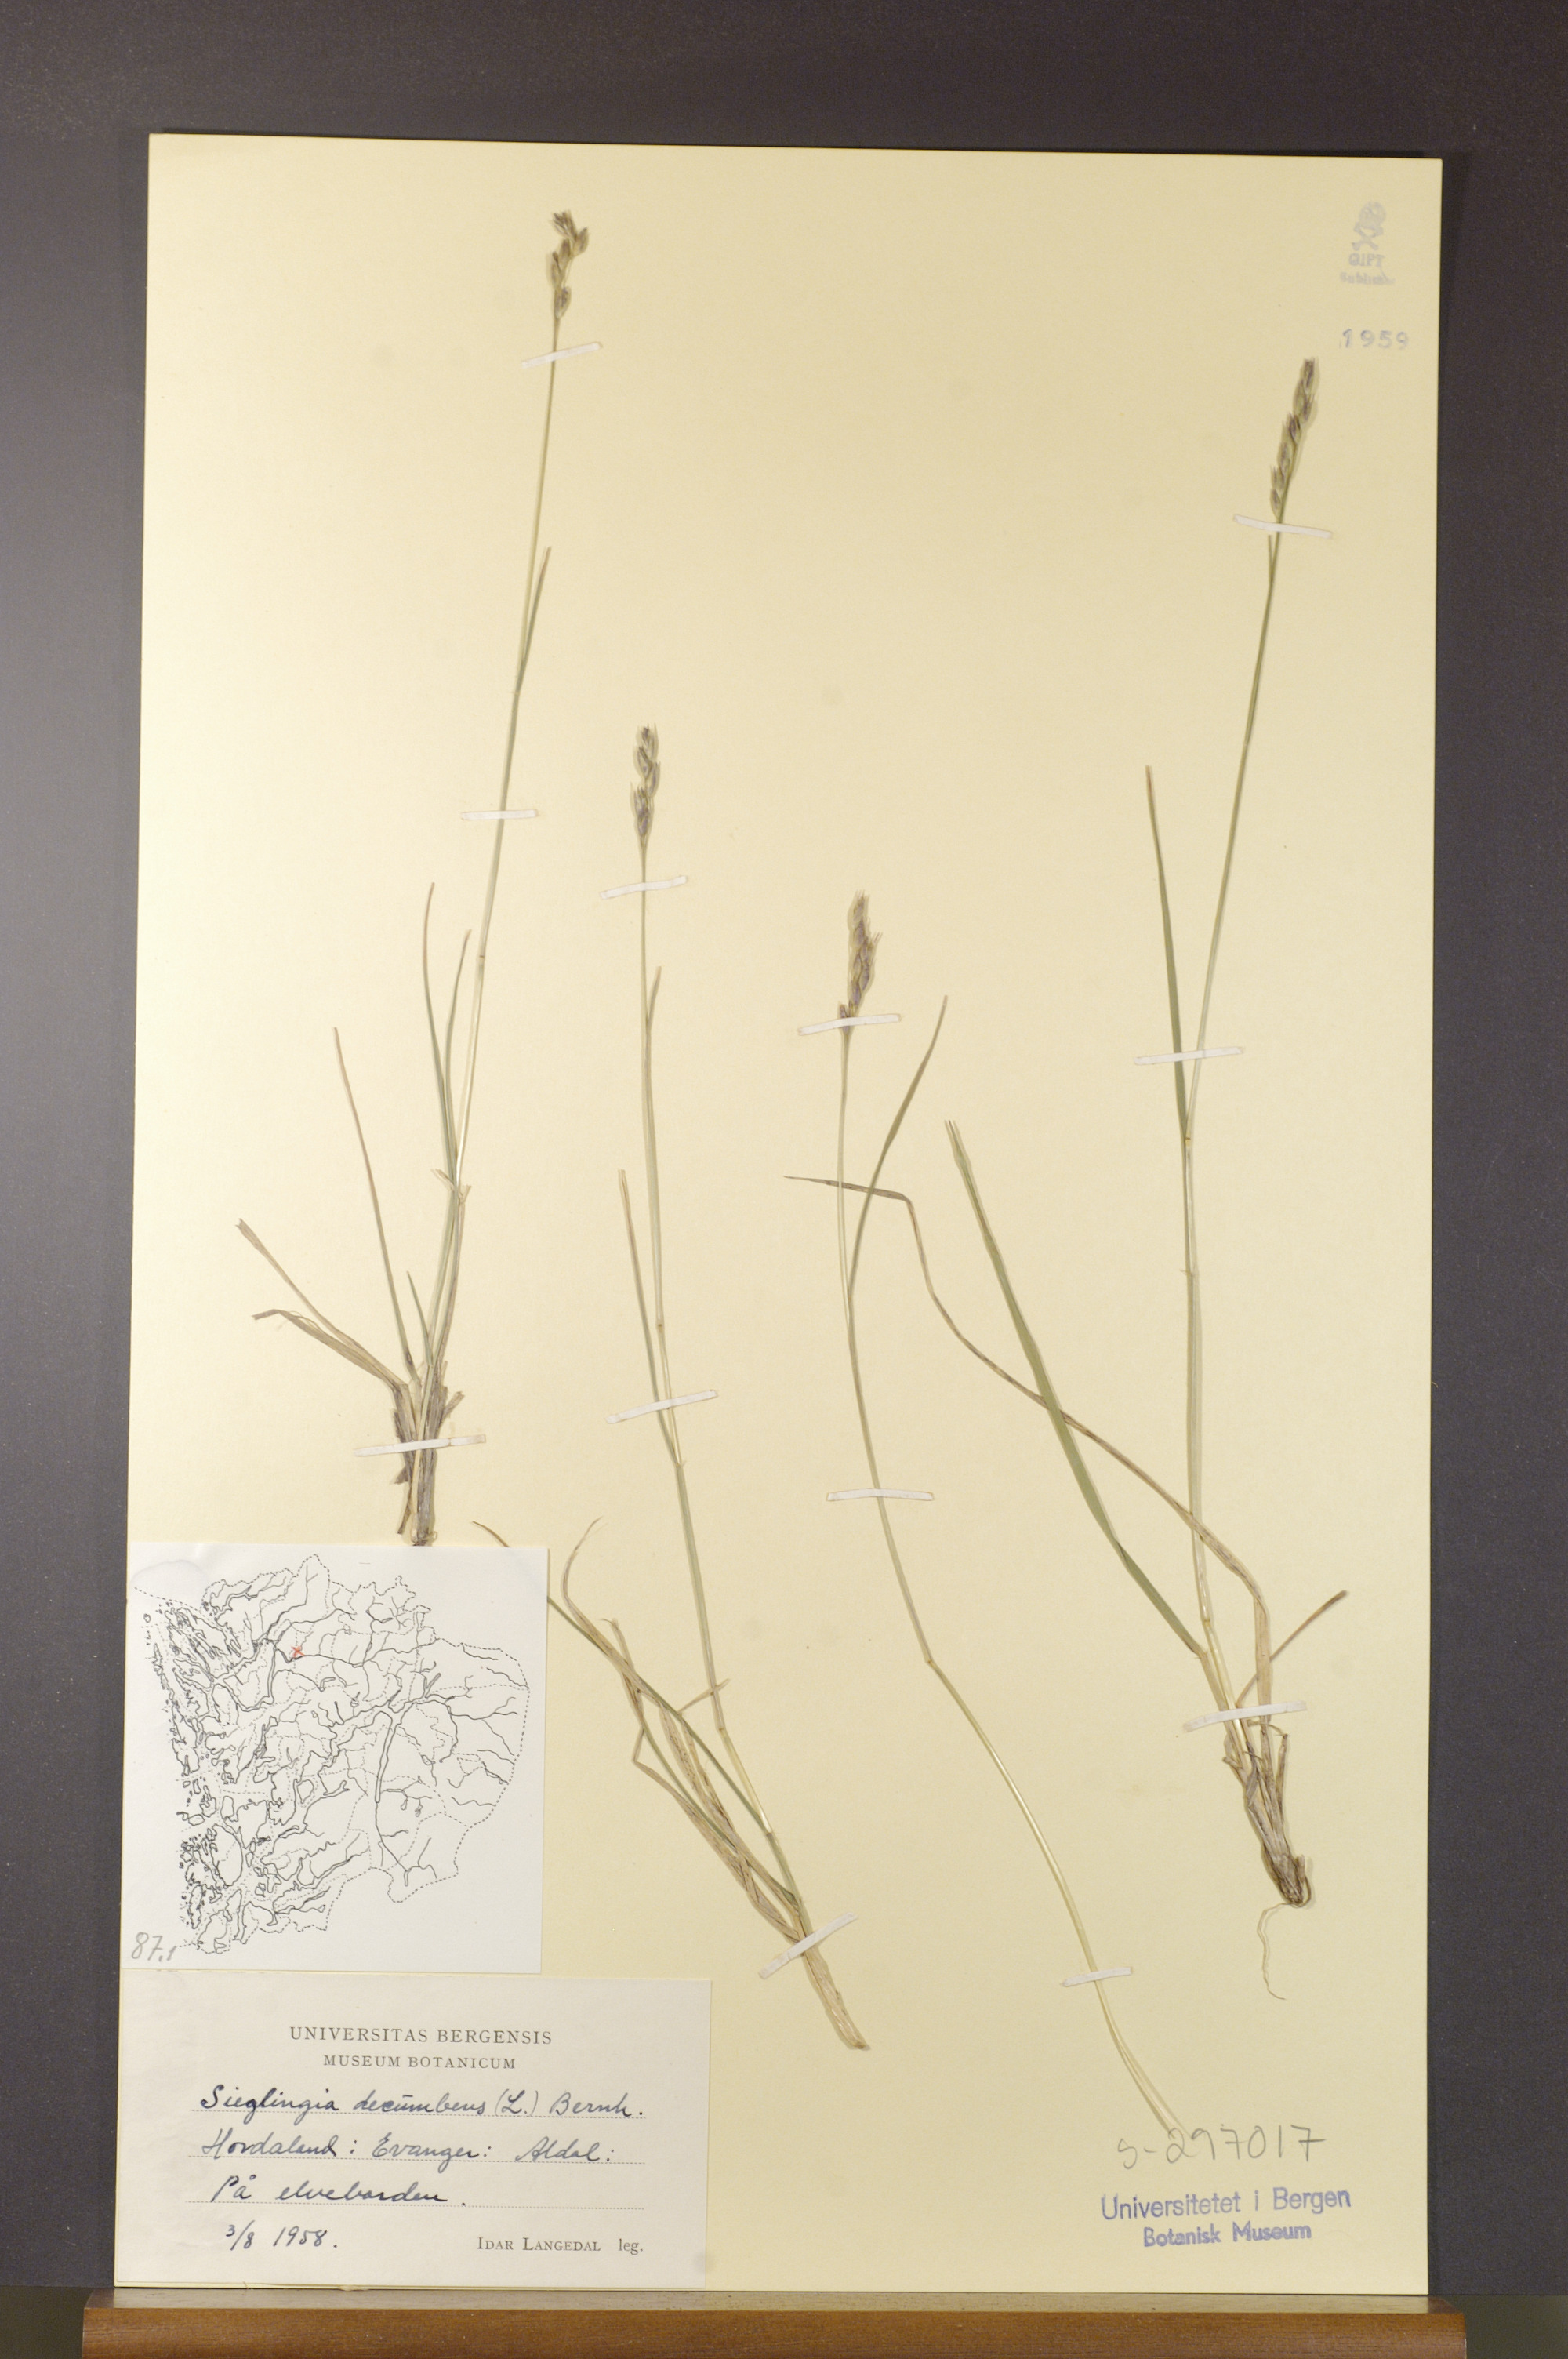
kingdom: Plantae
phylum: Tracheophyta
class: Liliopsida
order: Poales
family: Poaceae
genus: Danthonia
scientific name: Danthonia decumbens
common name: Common heathgrass
